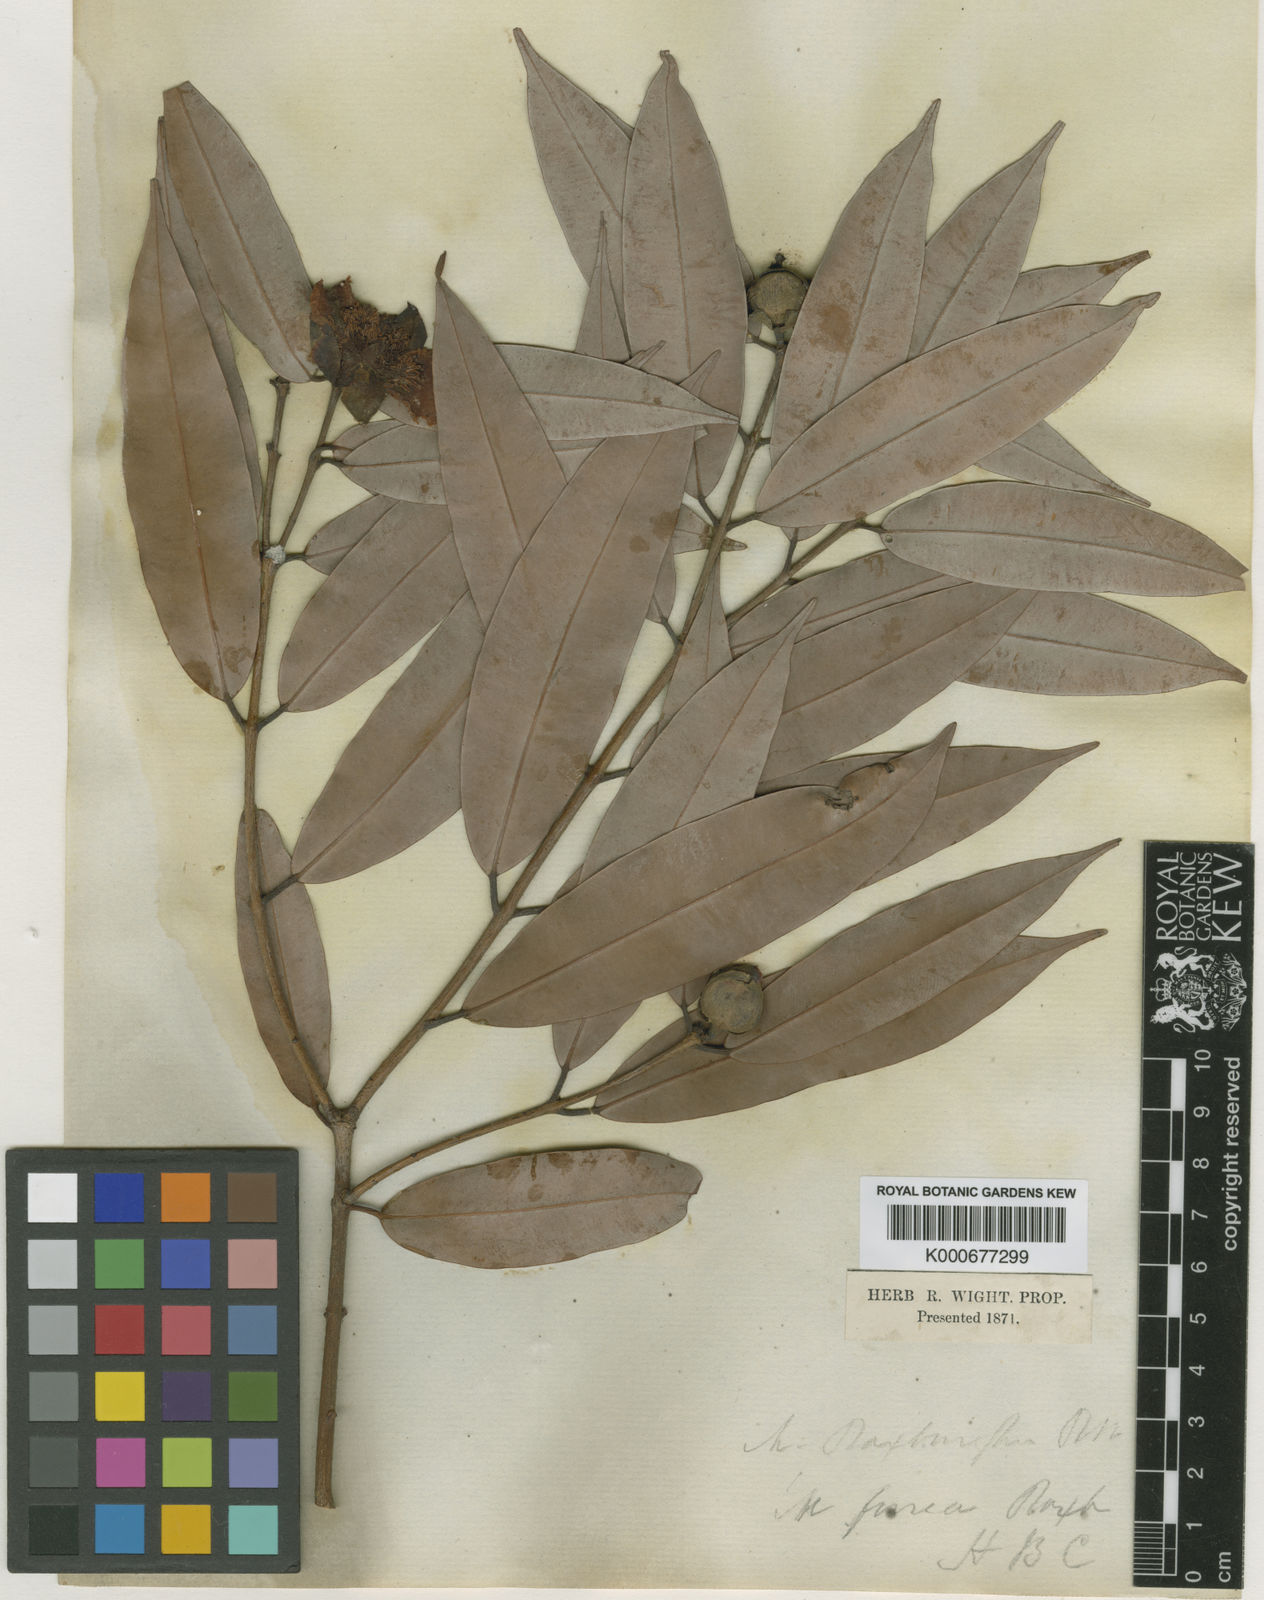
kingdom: Plantae
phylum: Tracheophyta
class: Magnoliopsida
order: Malpighiales
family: Calophyllaceae
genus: Mesua
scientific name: Mesua ferrea
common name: Mesua
